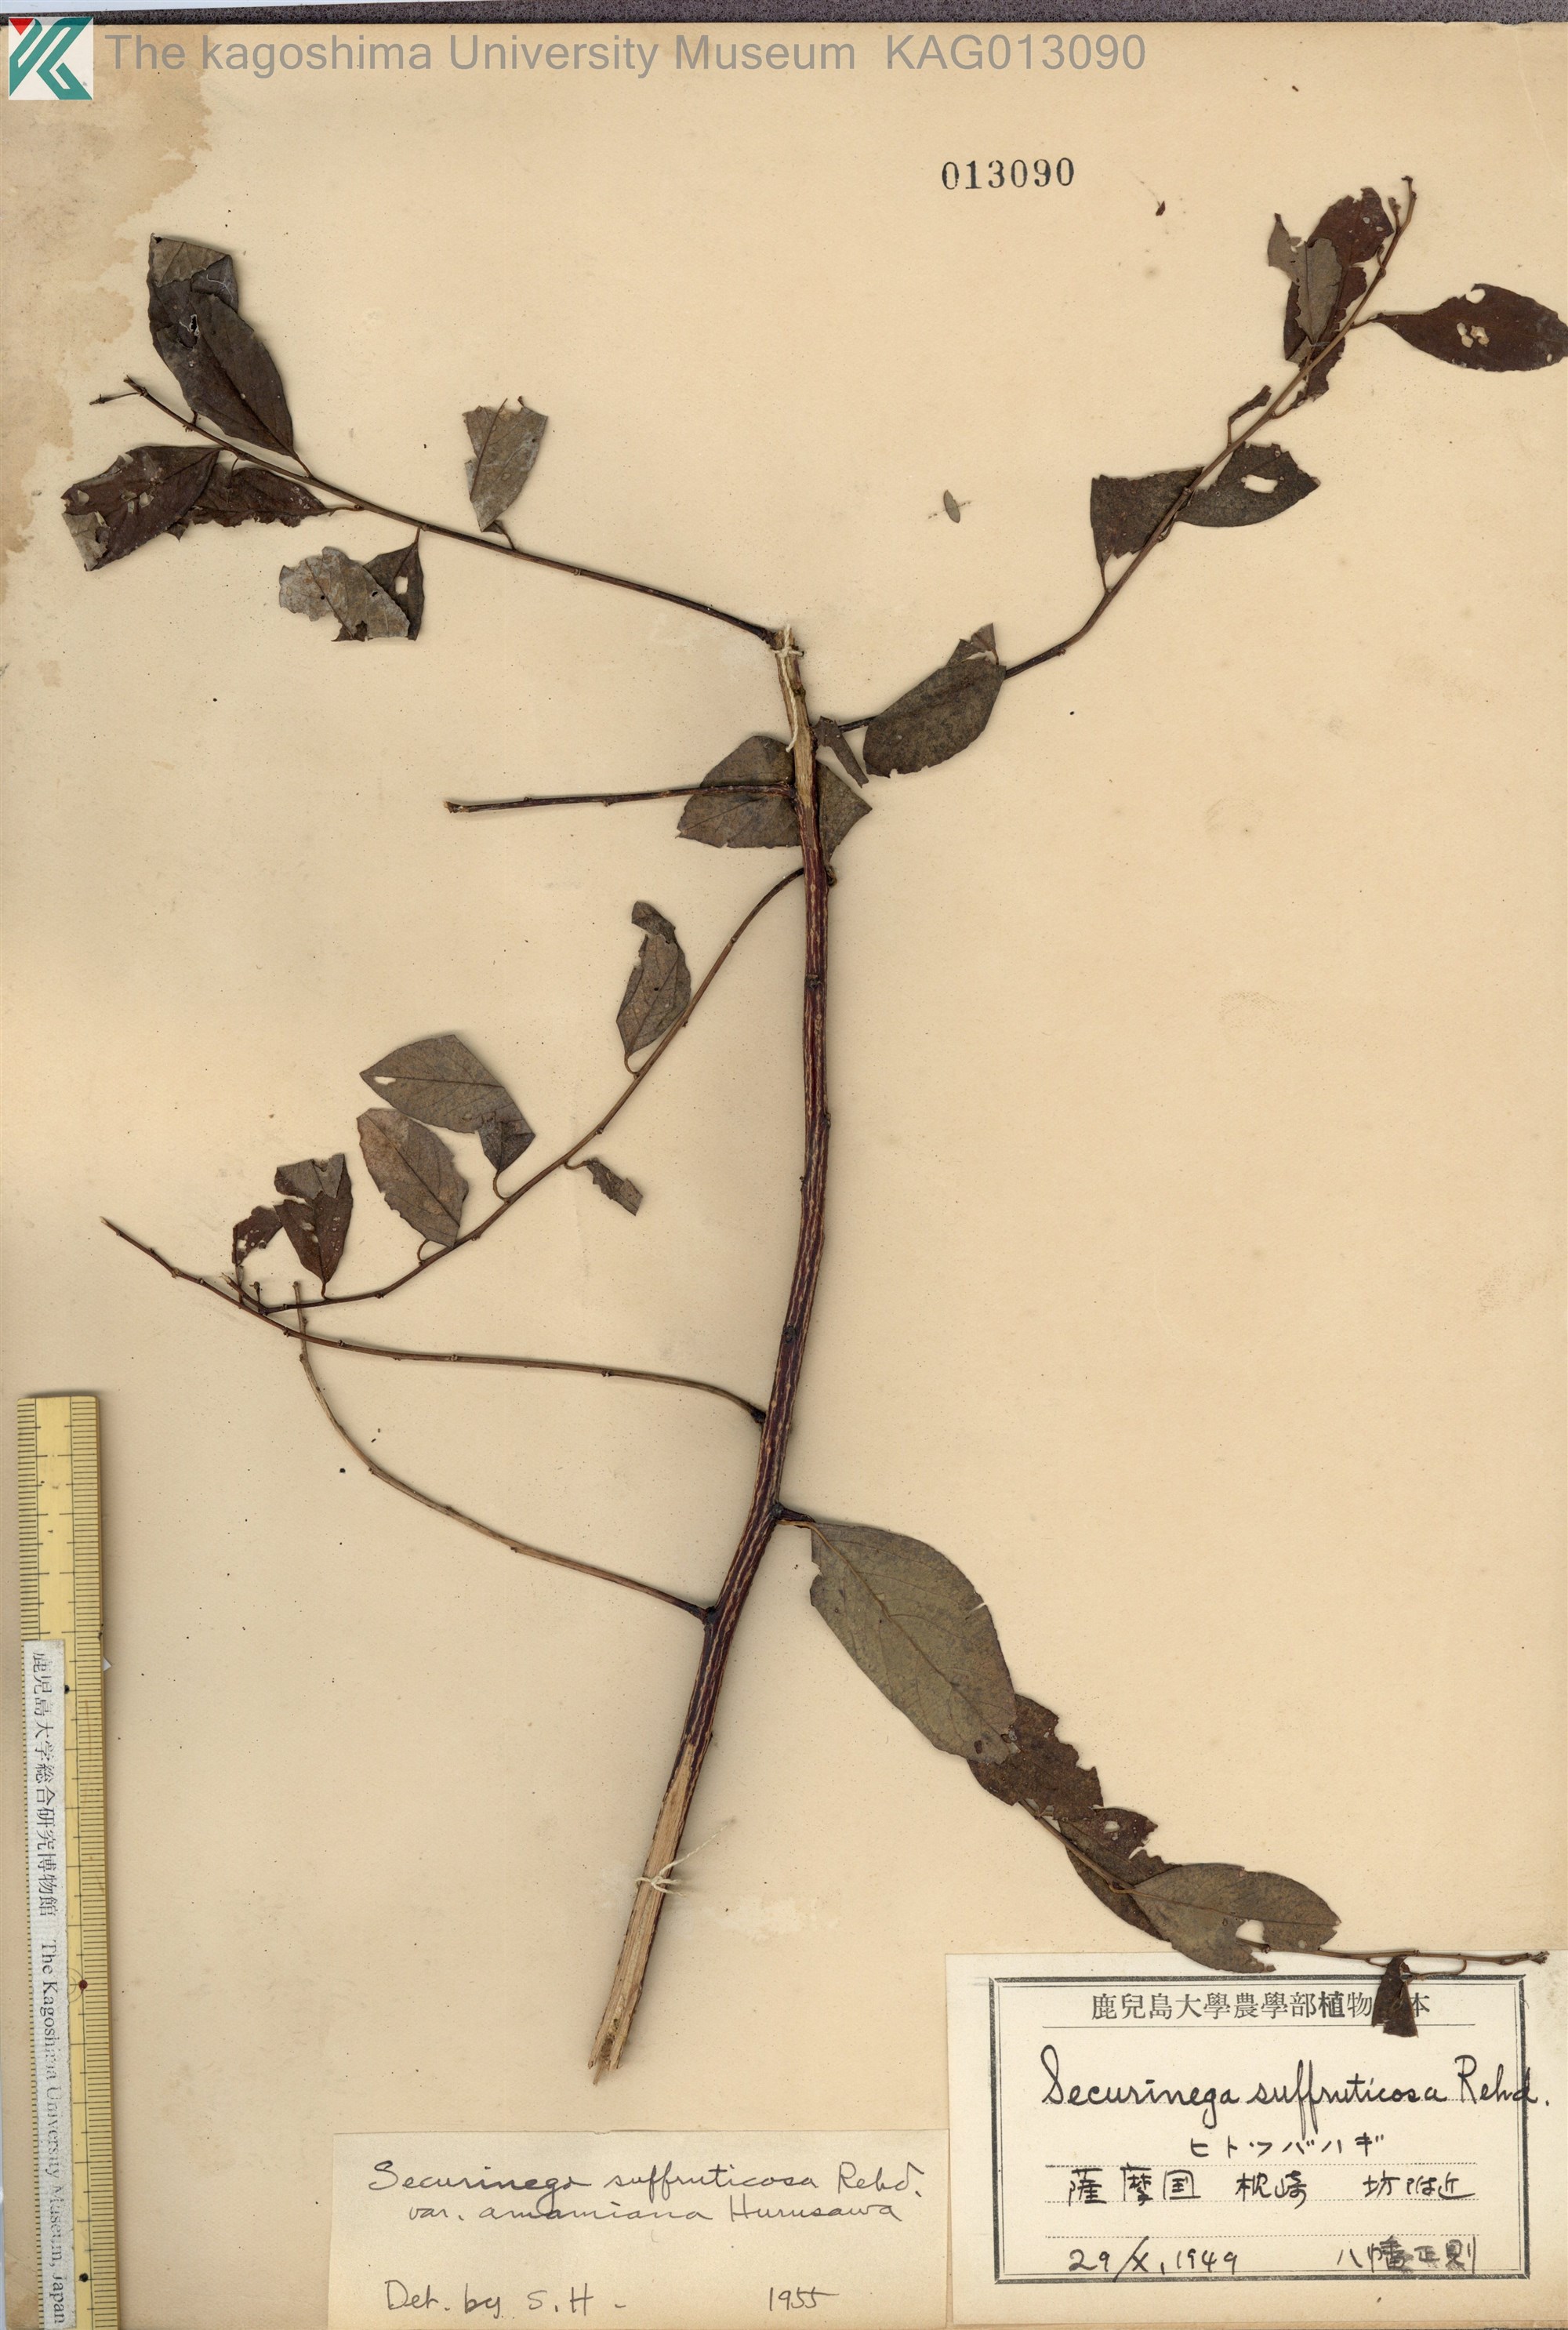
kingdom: Plantae
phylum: Tracheophyta
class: Magnoliopsida
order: Malpighiales
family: Phyllanthaceae
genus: Flueggea
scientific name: Flueggea suffruticosa
